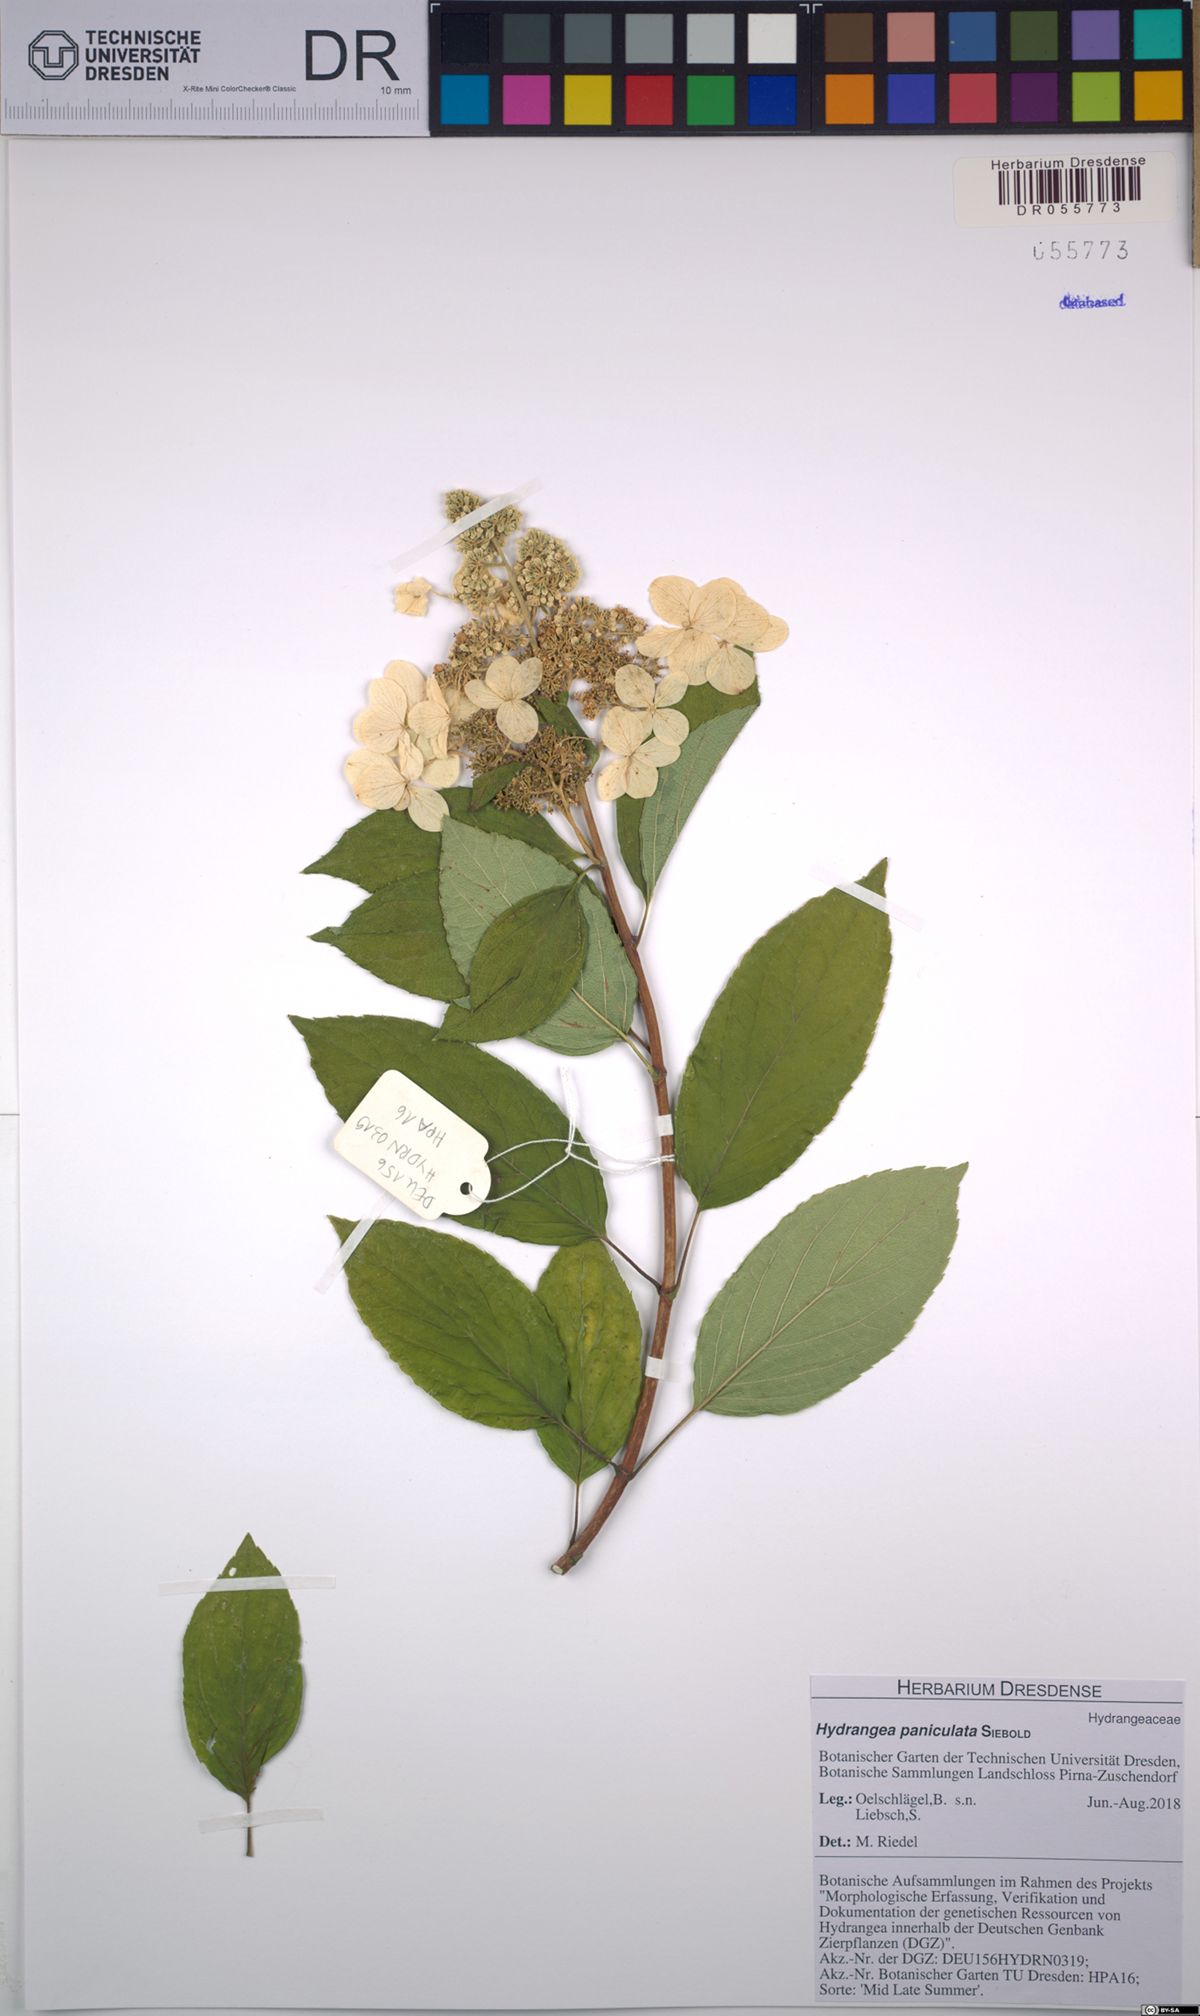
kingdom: Plantae
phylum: Tracheophyta
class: Magnoliopsida
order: Cornales
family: Hydrangeaceae
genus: Hydrangea
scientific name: Hydrangea paniculata
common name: Panicled hydrangea
